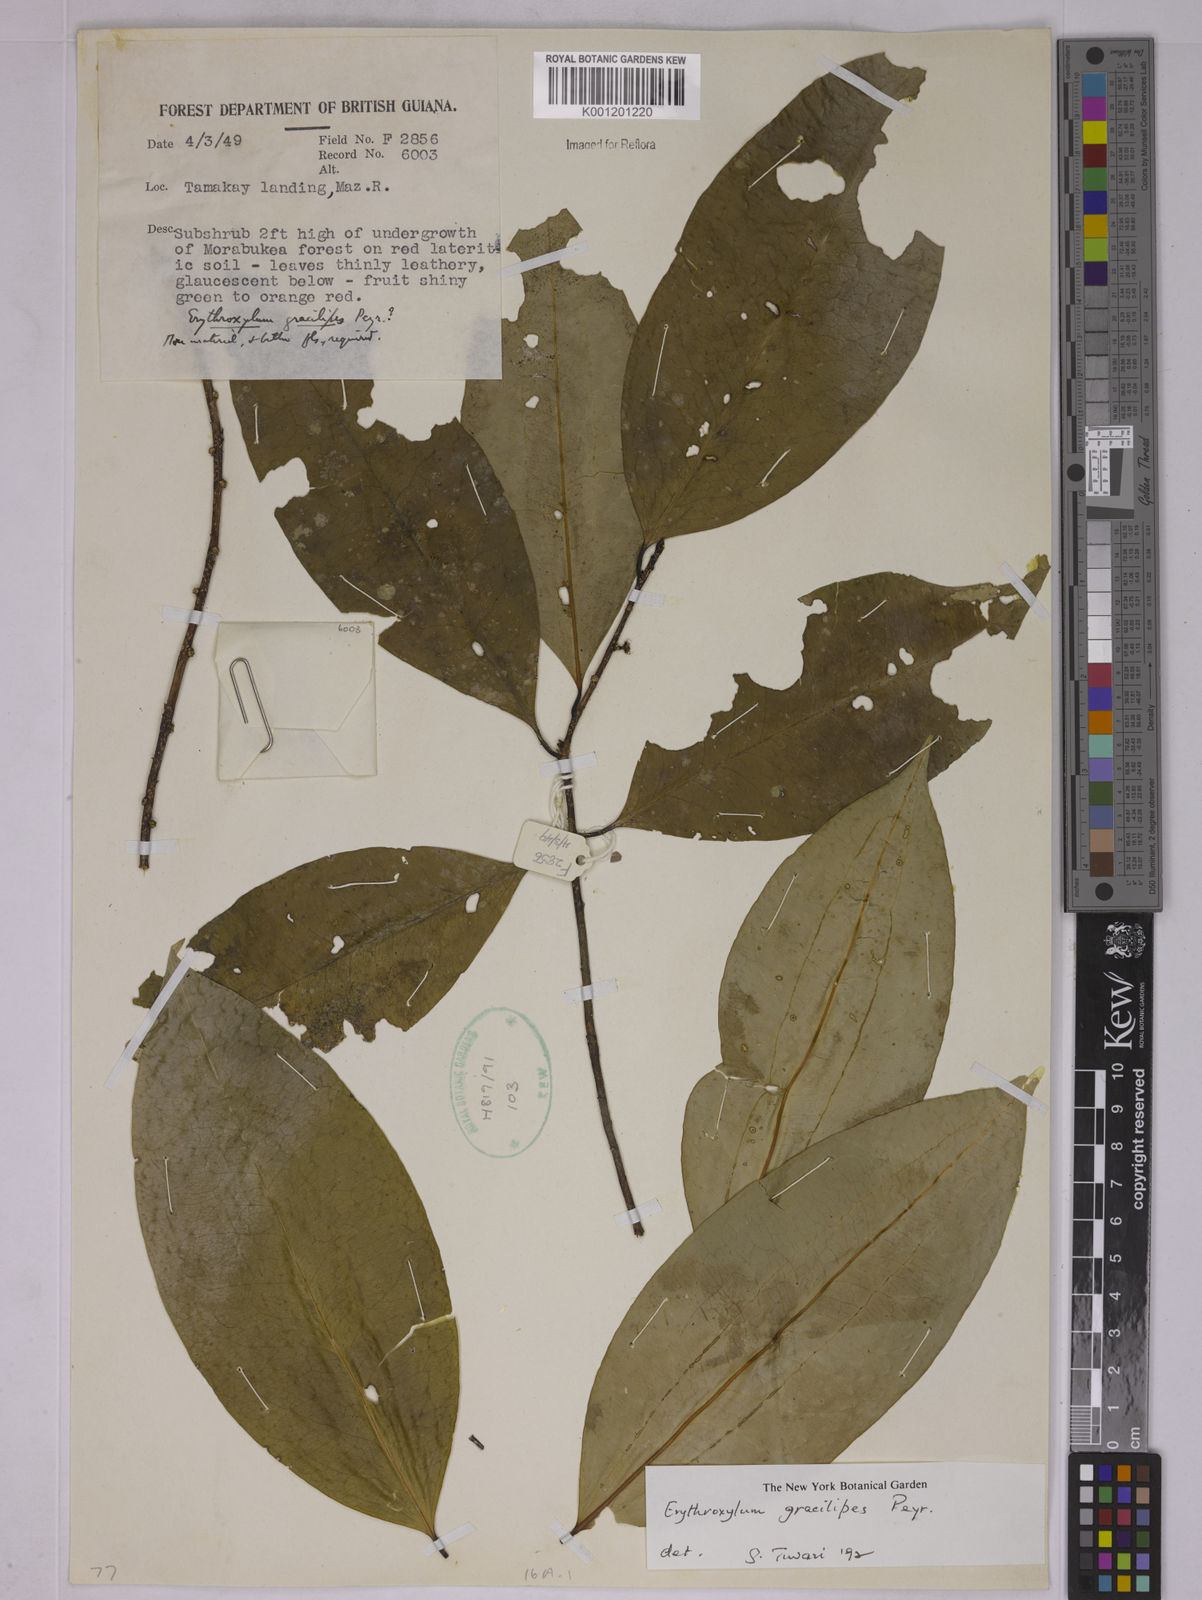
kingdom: Plantae
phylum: Tracheophyta
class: Magnoliopsida
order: Malpighiales
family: Erythroxylaceae
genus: Erythroxylum
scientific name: Erythroxylum gracilipes
